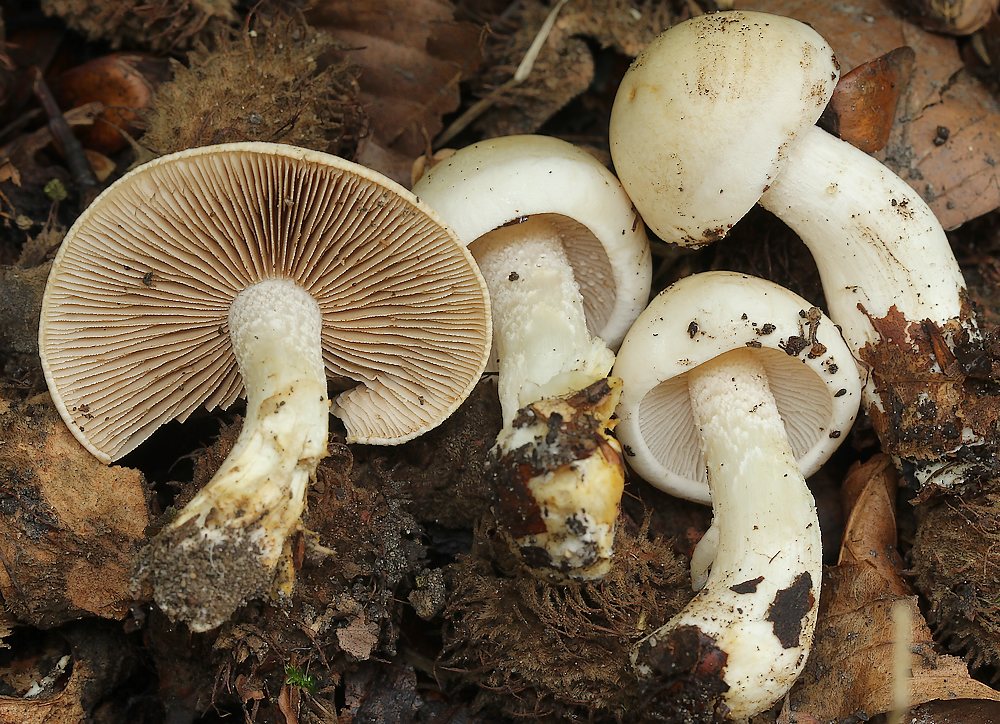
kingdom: Fungi
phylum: Basidiomycota
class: Agaricomycetes
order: Agaricales
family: Hymenogastraceae
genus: Hebeloma
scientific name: Hebeloma
